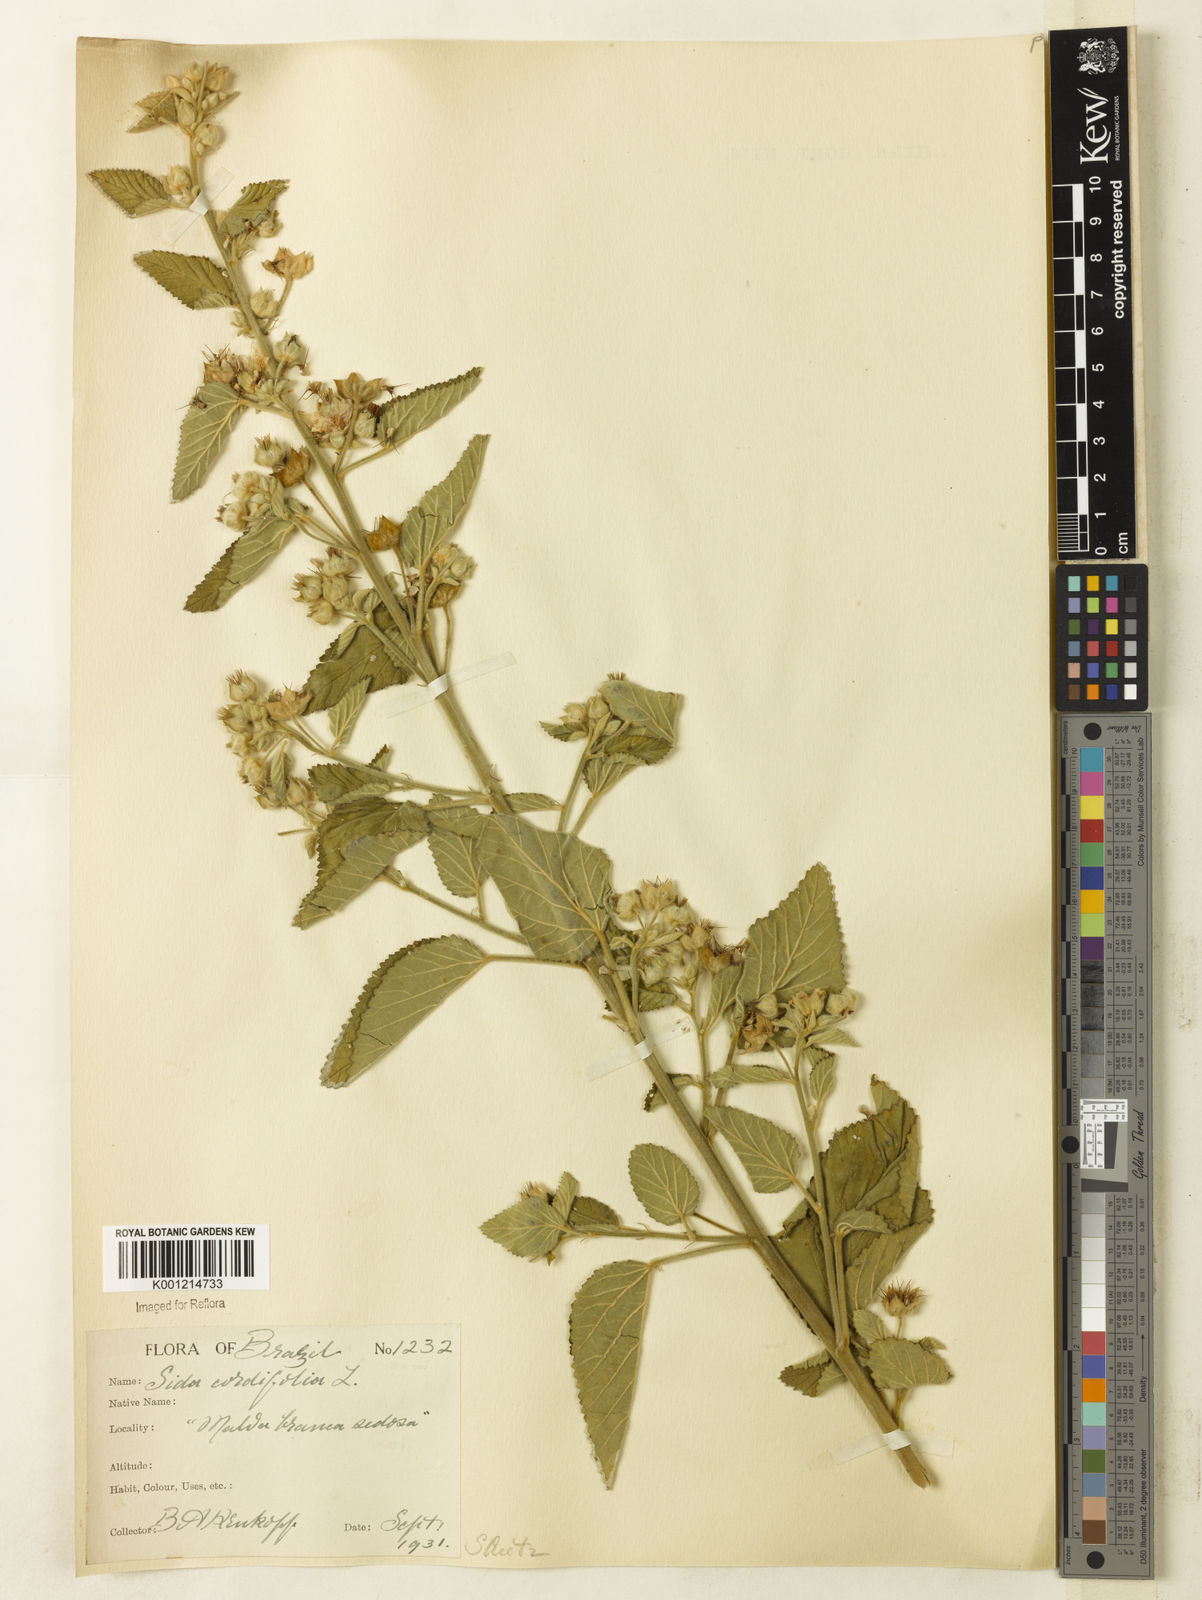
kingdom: Plantae
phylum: Tracheophyta
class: Magnoliopsida
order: Malvales
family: Malvaceae
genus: Sida
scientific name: Sida cordifolia
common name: Ilima
